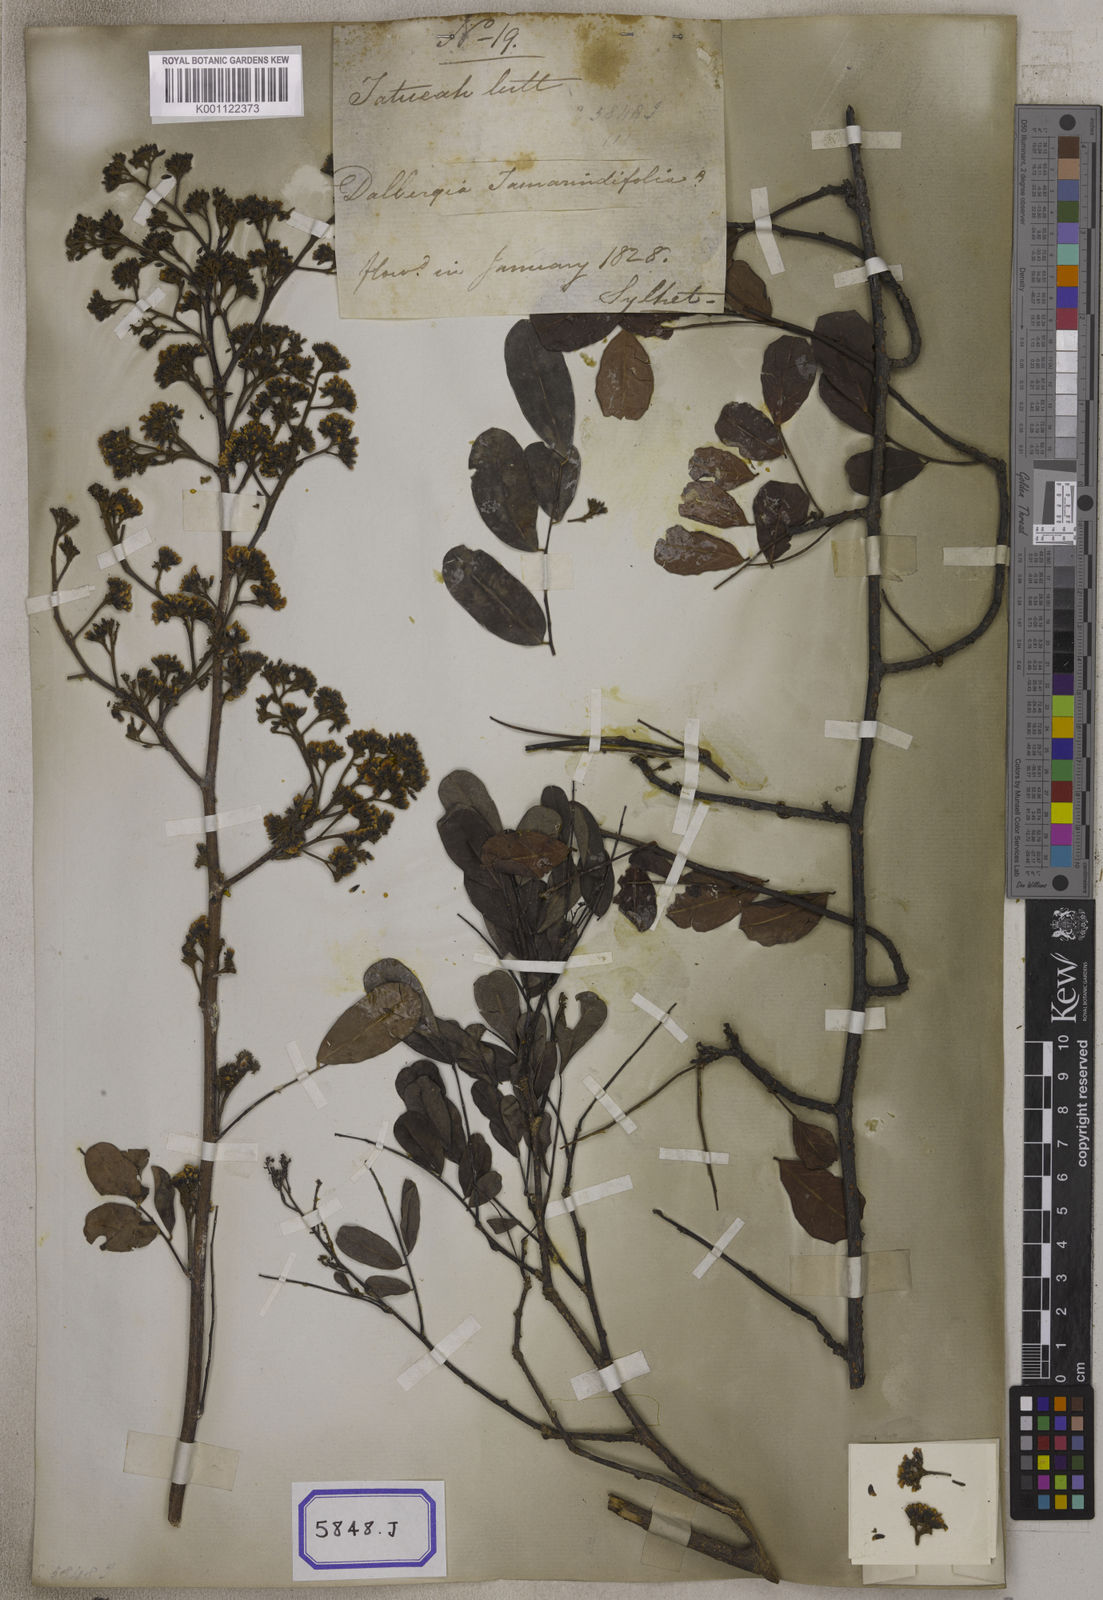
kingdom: Plantae
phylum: Tracheophyta
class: Magnoliopsida
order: Fabales
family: Fabaceae
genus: Dalbergia
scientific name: Dalbergia lanceolaria
